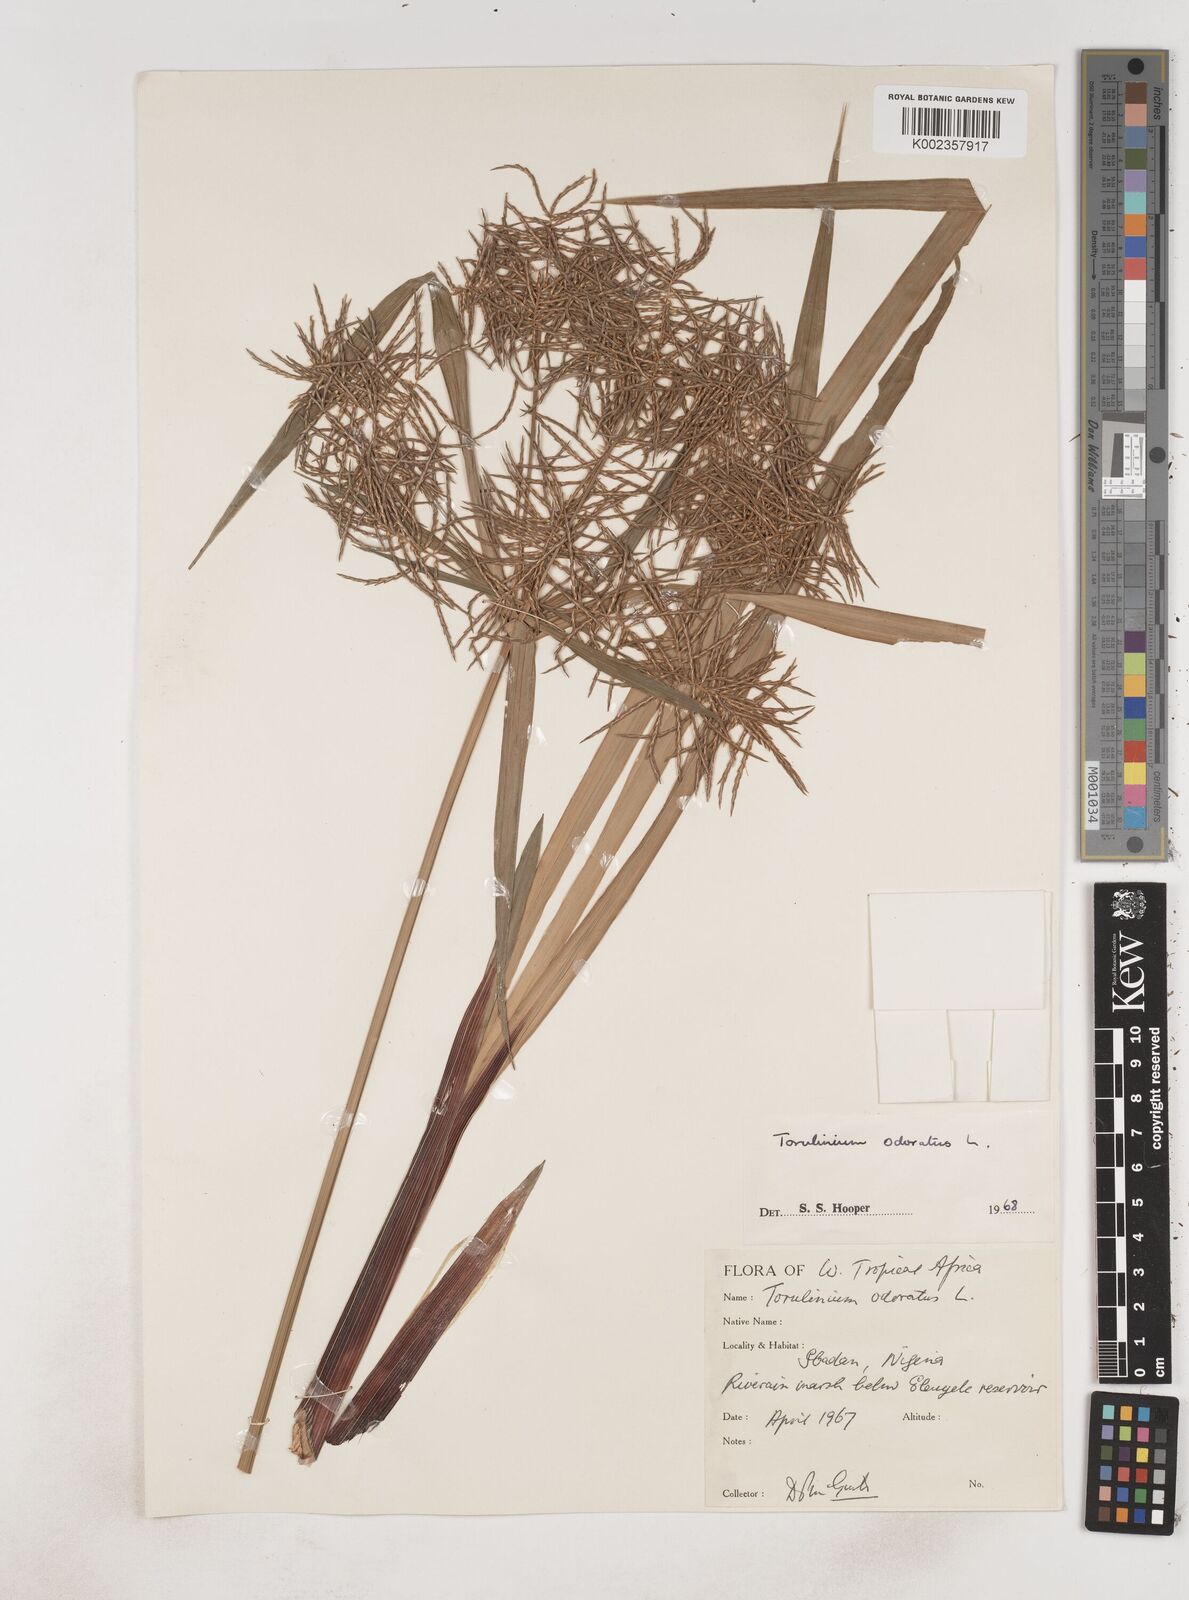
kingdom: Plantae
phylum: Tracheophyta
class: Liliopsida
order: Poales
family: Cyperaceae
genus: Cyperus
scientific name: Cyperus odoratus
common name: Fragrant flatsedge
